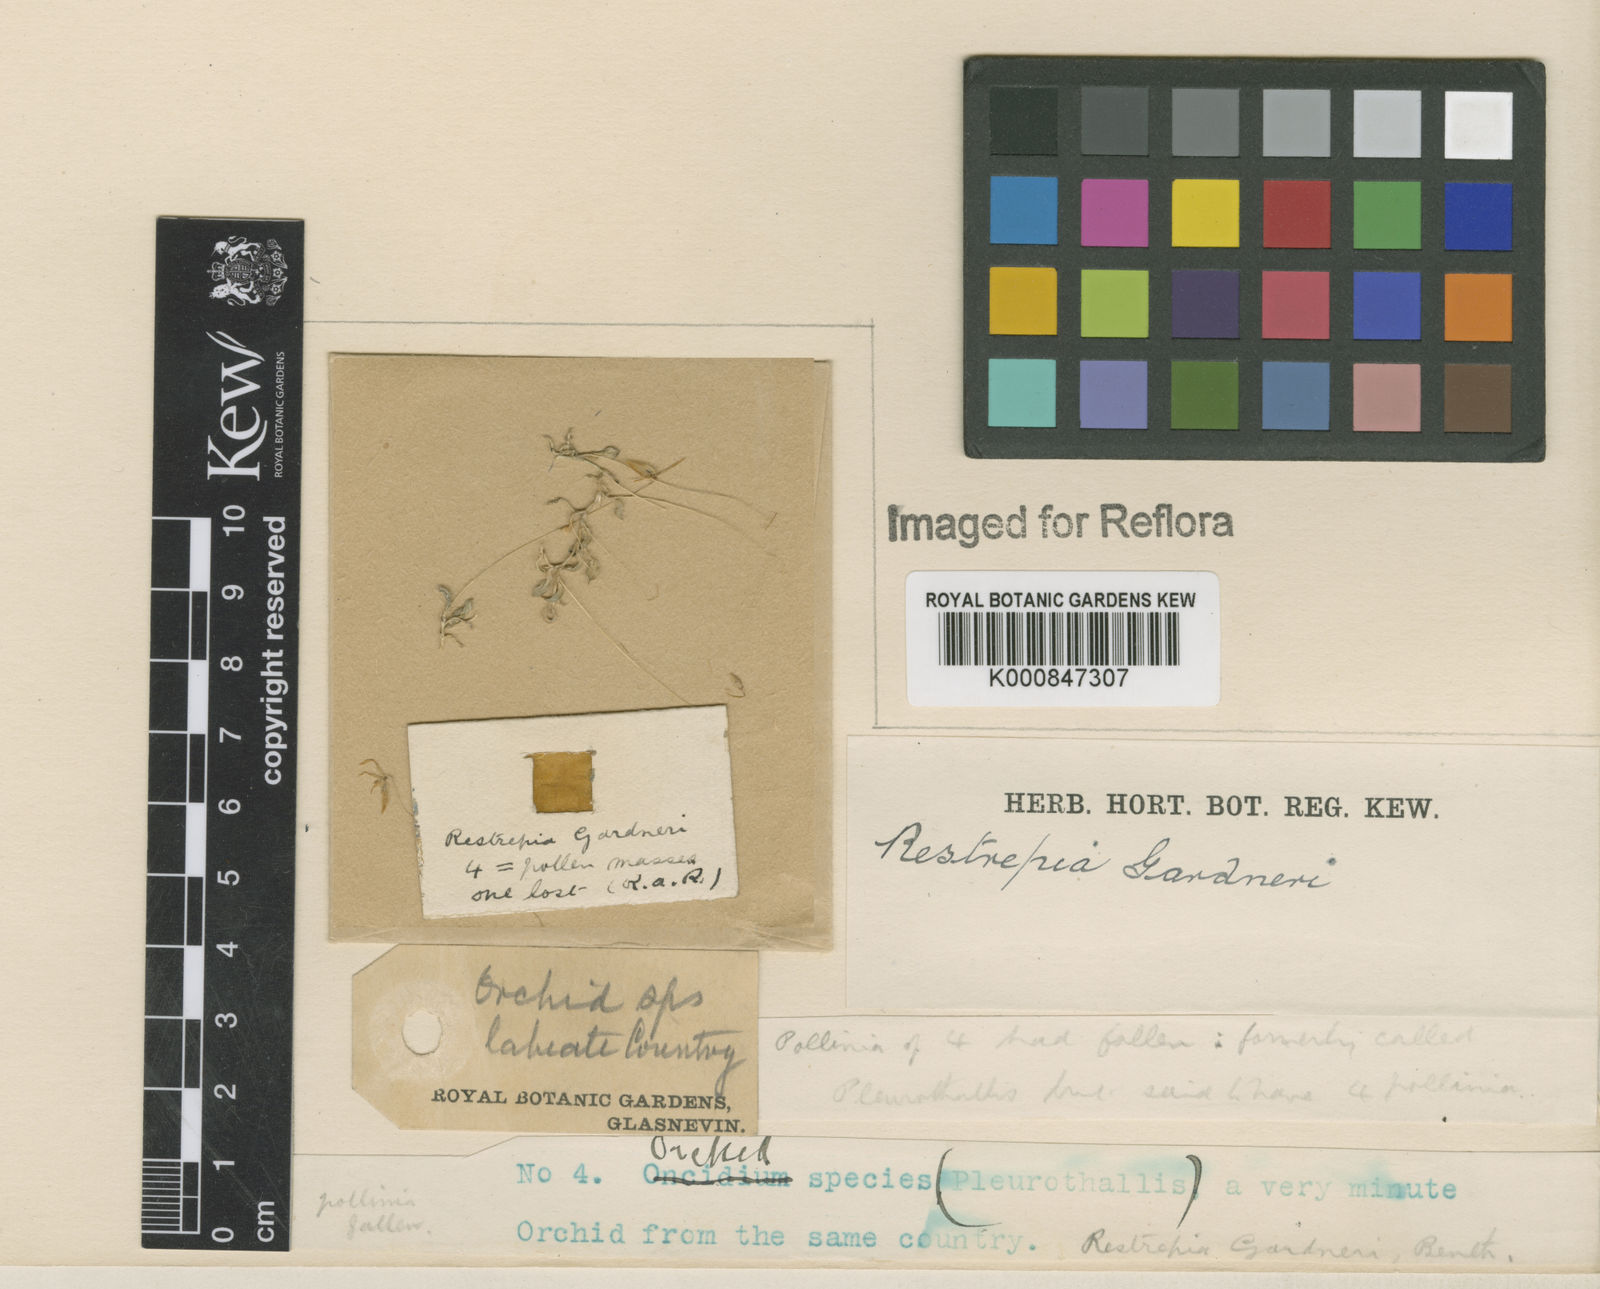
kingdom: Plantae
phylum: Tracheophyta
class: Liliopsida
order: Asparagales
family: Orchidaceae
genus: Barbosella
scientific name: Barbosella gardneri
